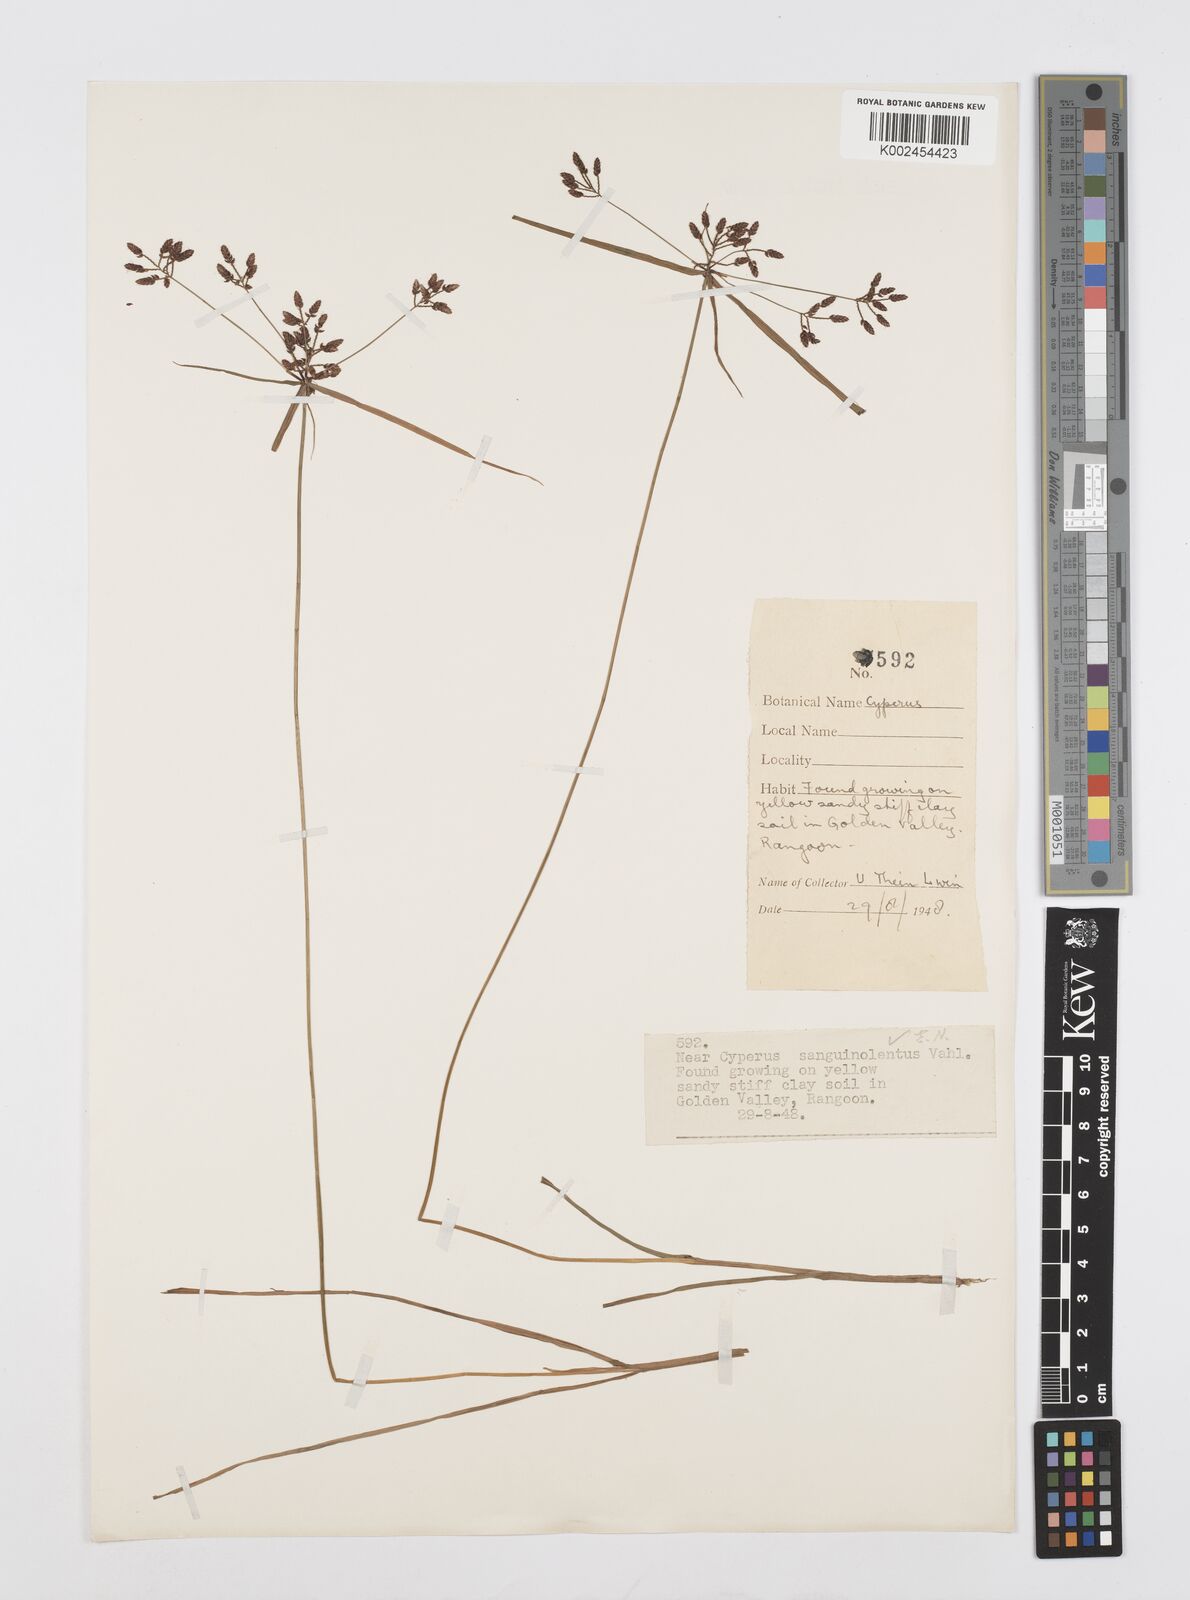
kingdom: Plantae
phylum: Tracheophyta
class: Liliopsida
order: Poales
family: Cyperaceae
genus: Cyperus
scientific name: Cyperus sanguinolentus
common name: Purpleglume flatsedge
